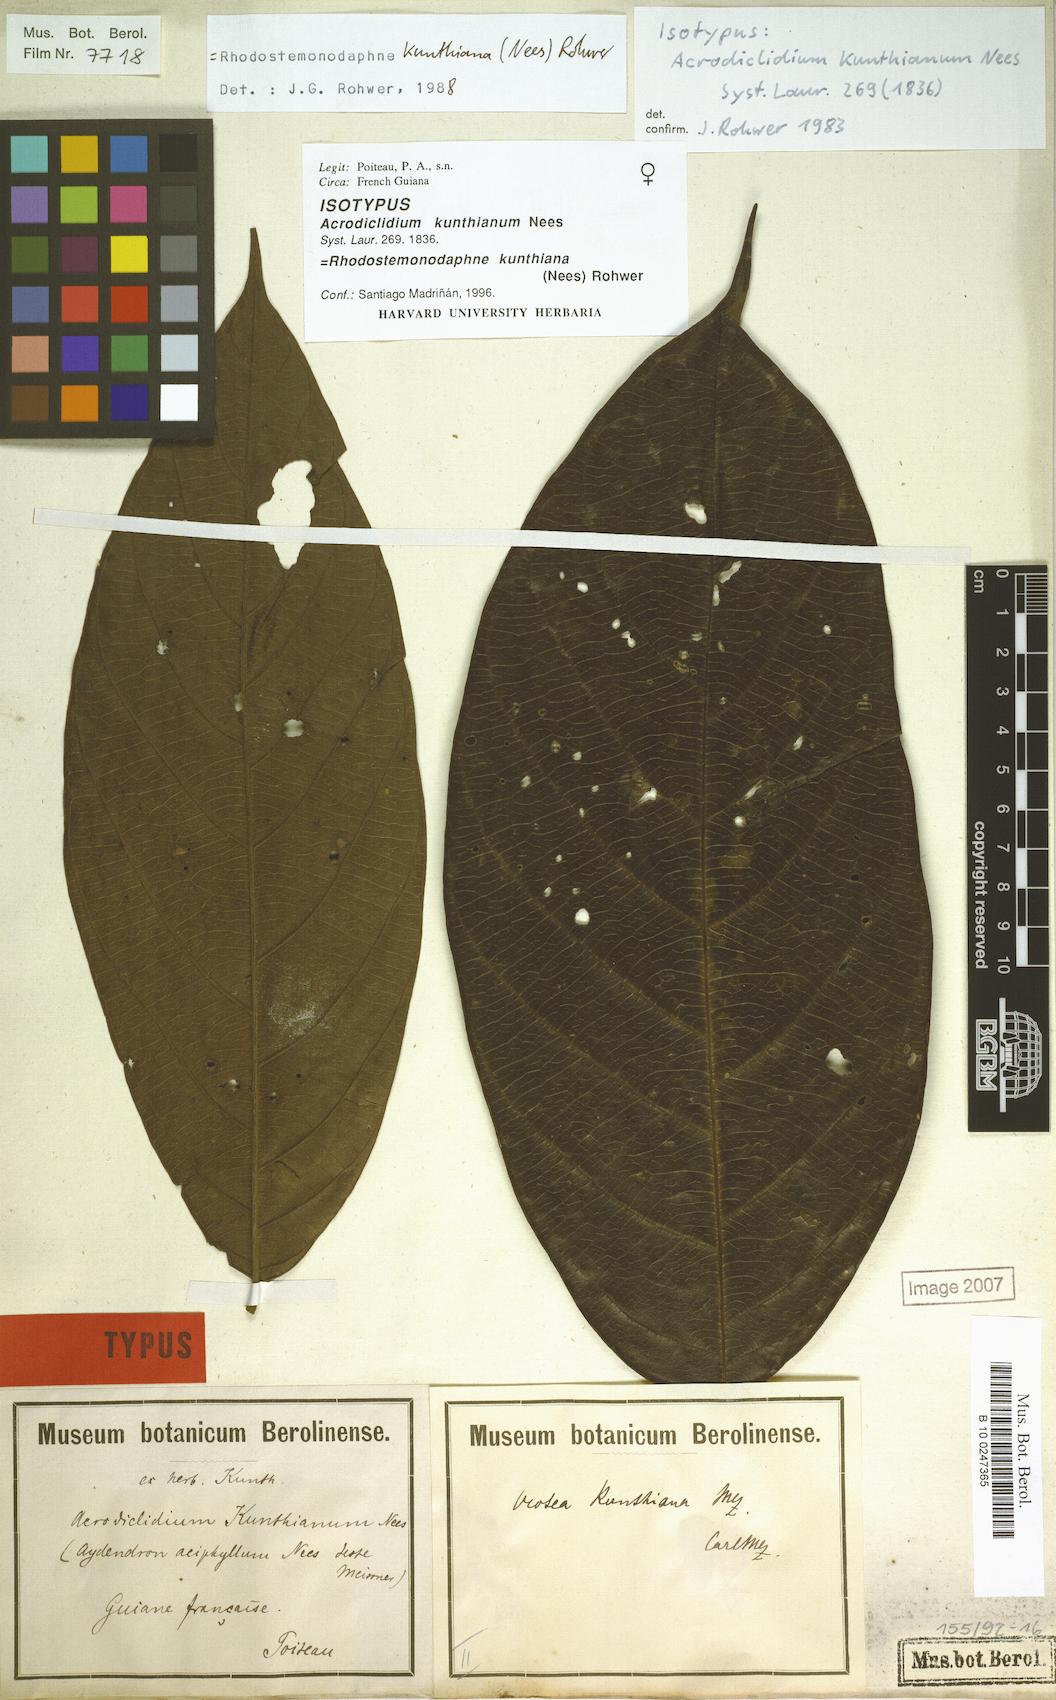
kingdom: Plantae
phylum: Tracheophyta
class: Magnoliopsida
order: Laurales
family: Lauraceae
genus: Rhodostemonodaphne
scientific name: Rhodostemonodaphne kunthiana
